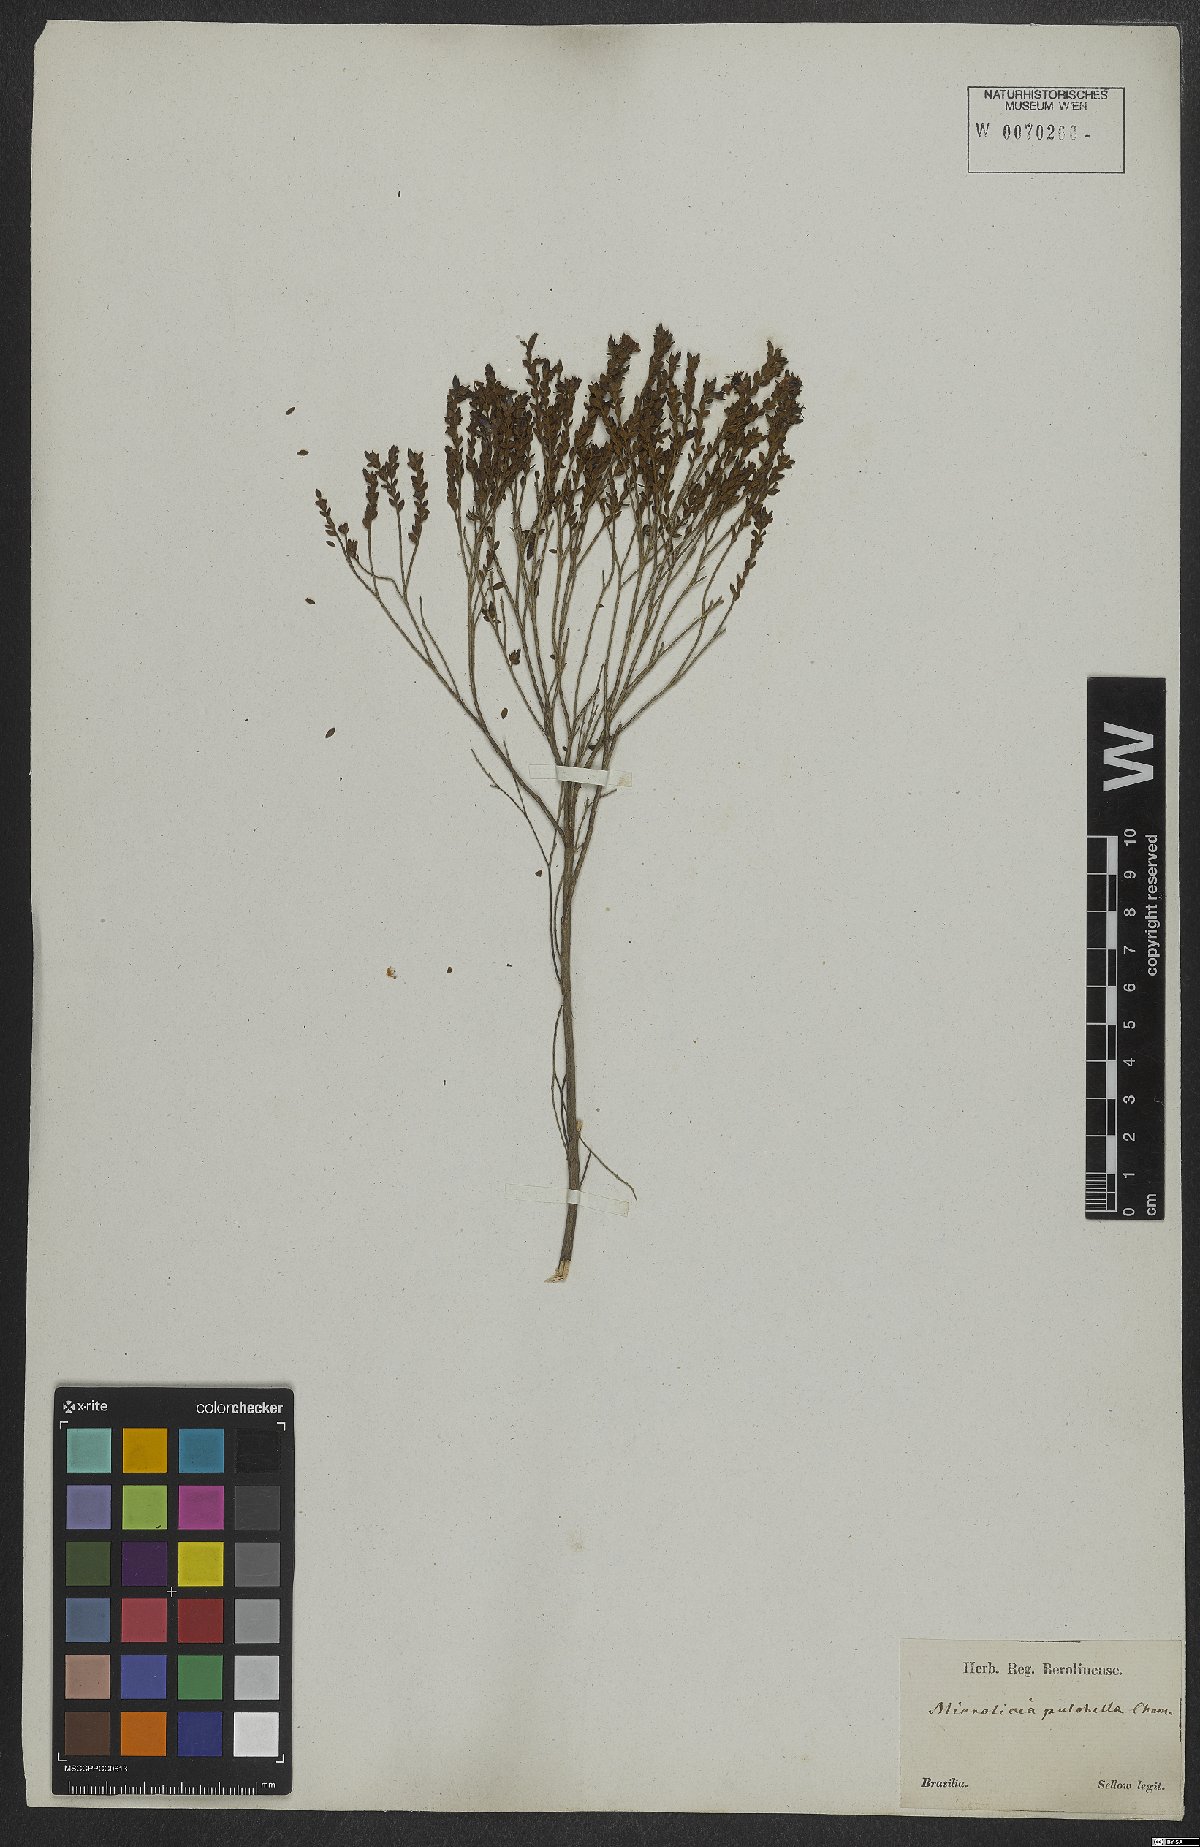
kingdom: Plantae
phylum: Tracheophyta
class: Magnoliopsida
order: Myrtales
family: Melastomataceae
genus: Microlicia
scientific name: Microlicia isophylla
